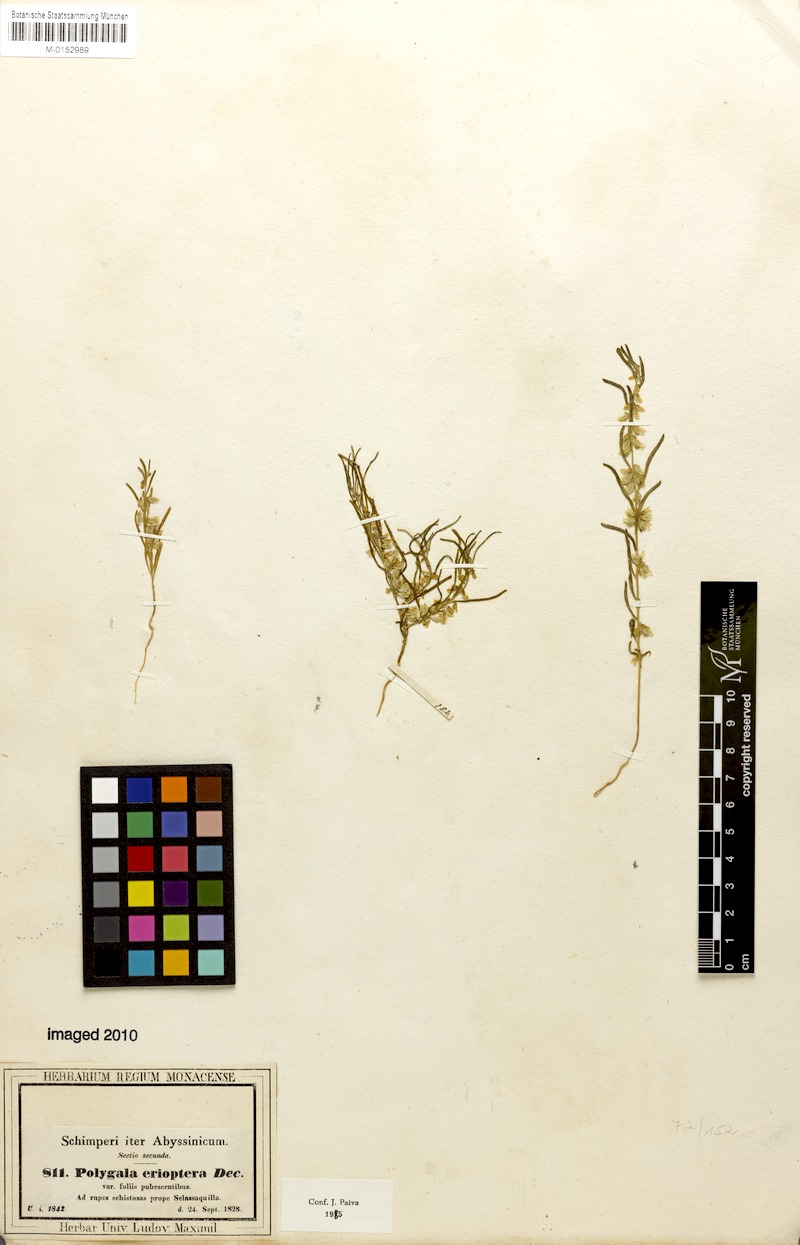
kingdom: Plantae
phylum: Tracheophyta
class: Magnoliopsida
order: Fabales
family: Polygalaceae
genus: Polygala
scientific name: Polygala erioptera
